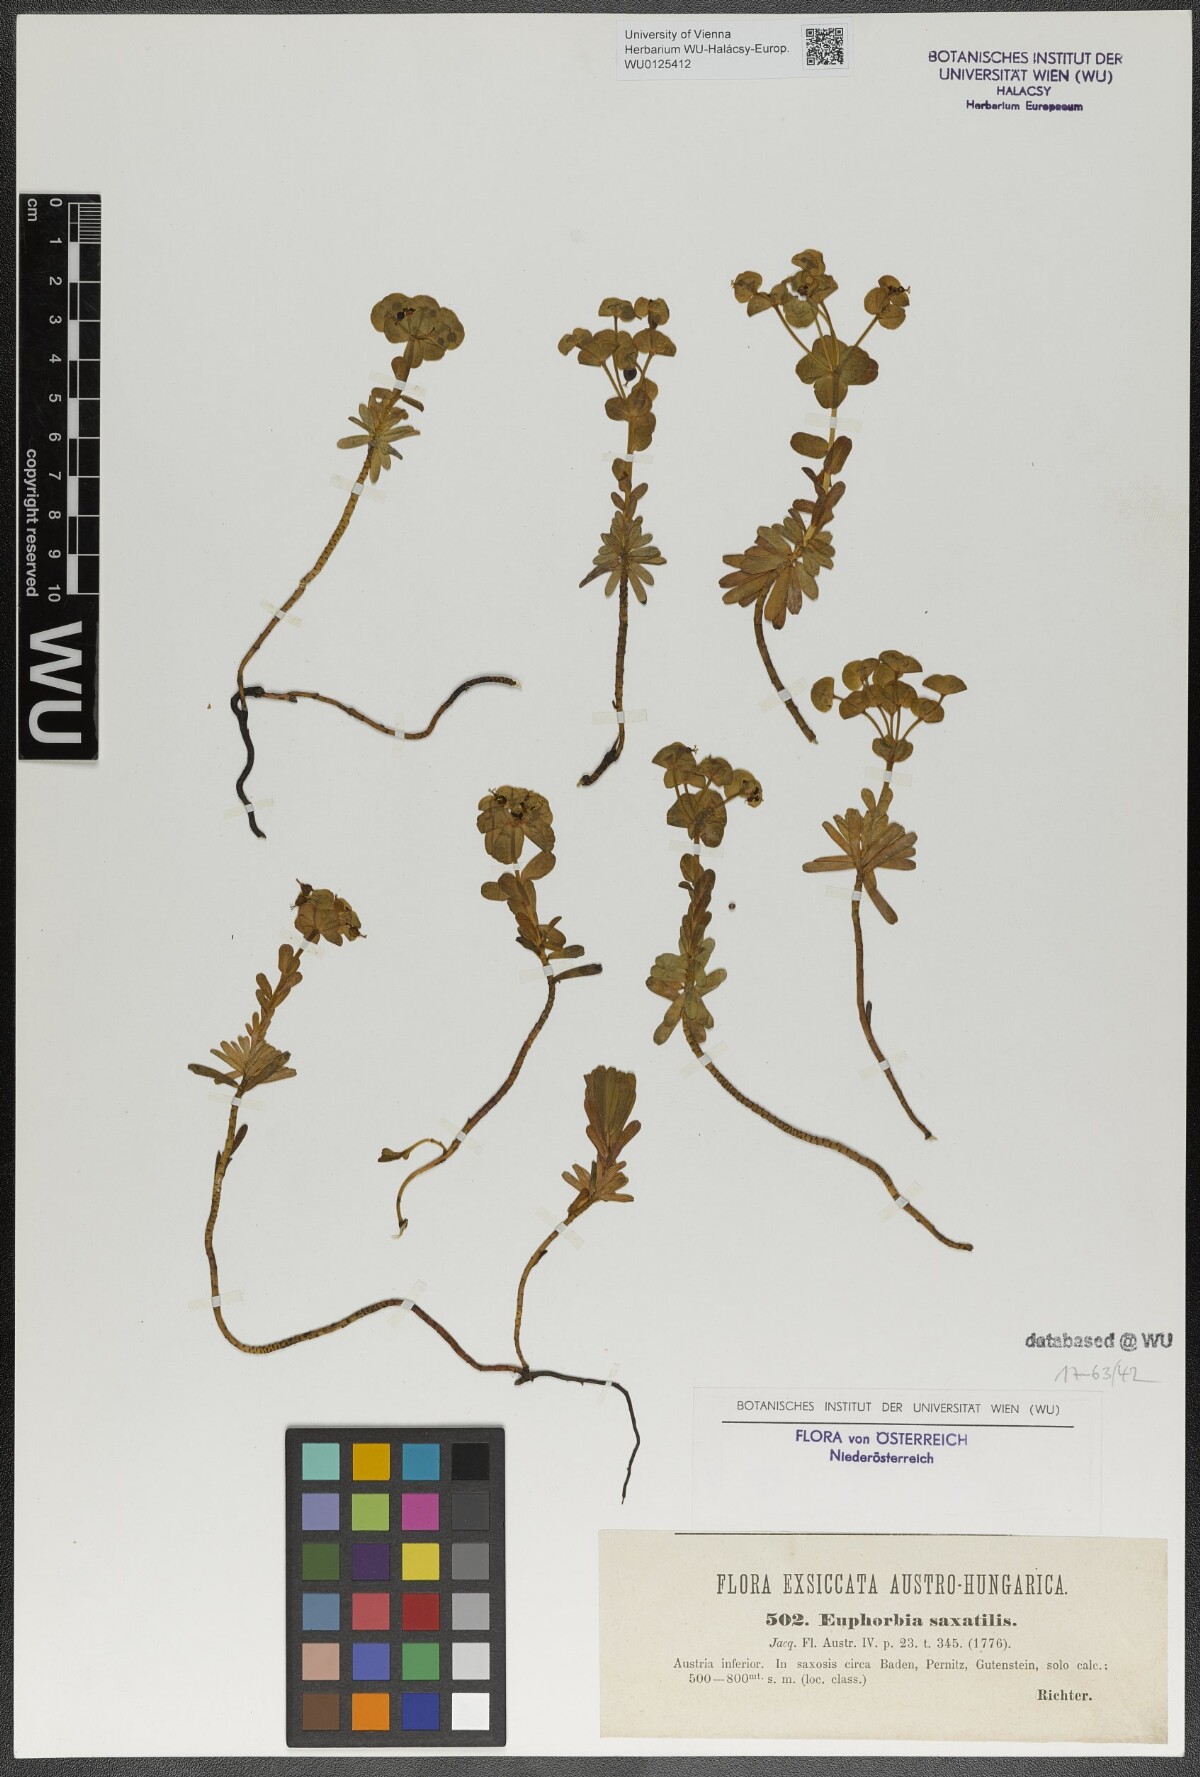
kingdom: Plantae
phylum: Tracheophyta
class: Magnoliopsida
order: Malpighiales
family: Euphorbiaceae
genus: Euphorbia
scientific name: Euphorbia saxatilis
